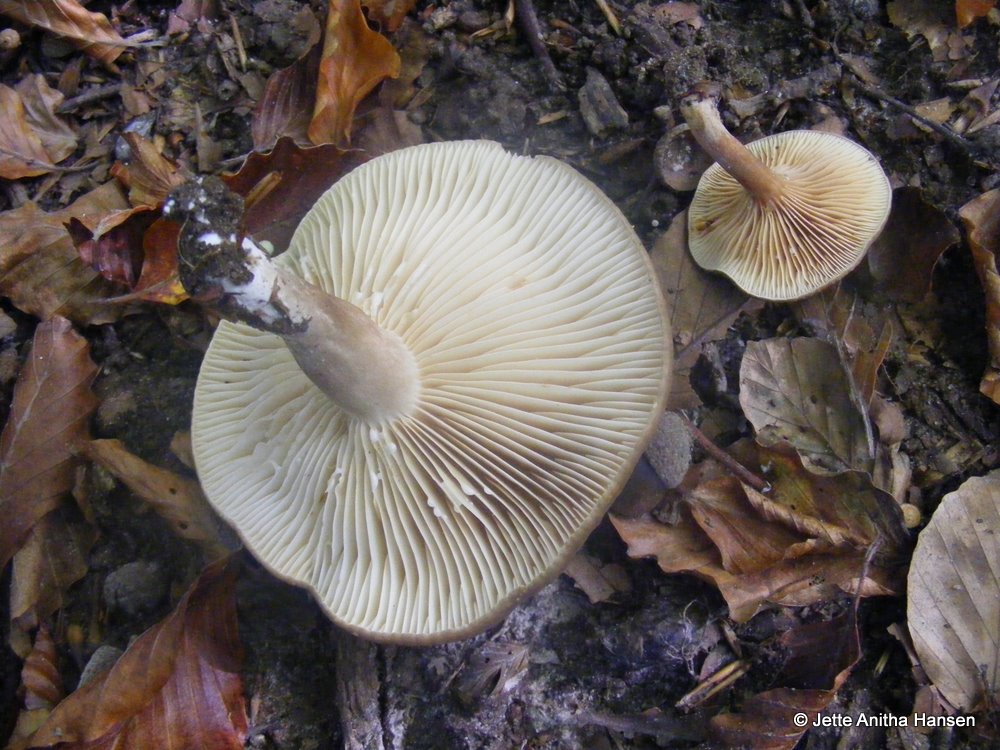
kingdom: Fungi
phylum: Basidiomycota
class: Agaricomycetes
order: Russulales
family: Russulaceae
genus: Lactarius
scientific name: Lactarius romagnesii
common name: fjernbladet mælkehat
